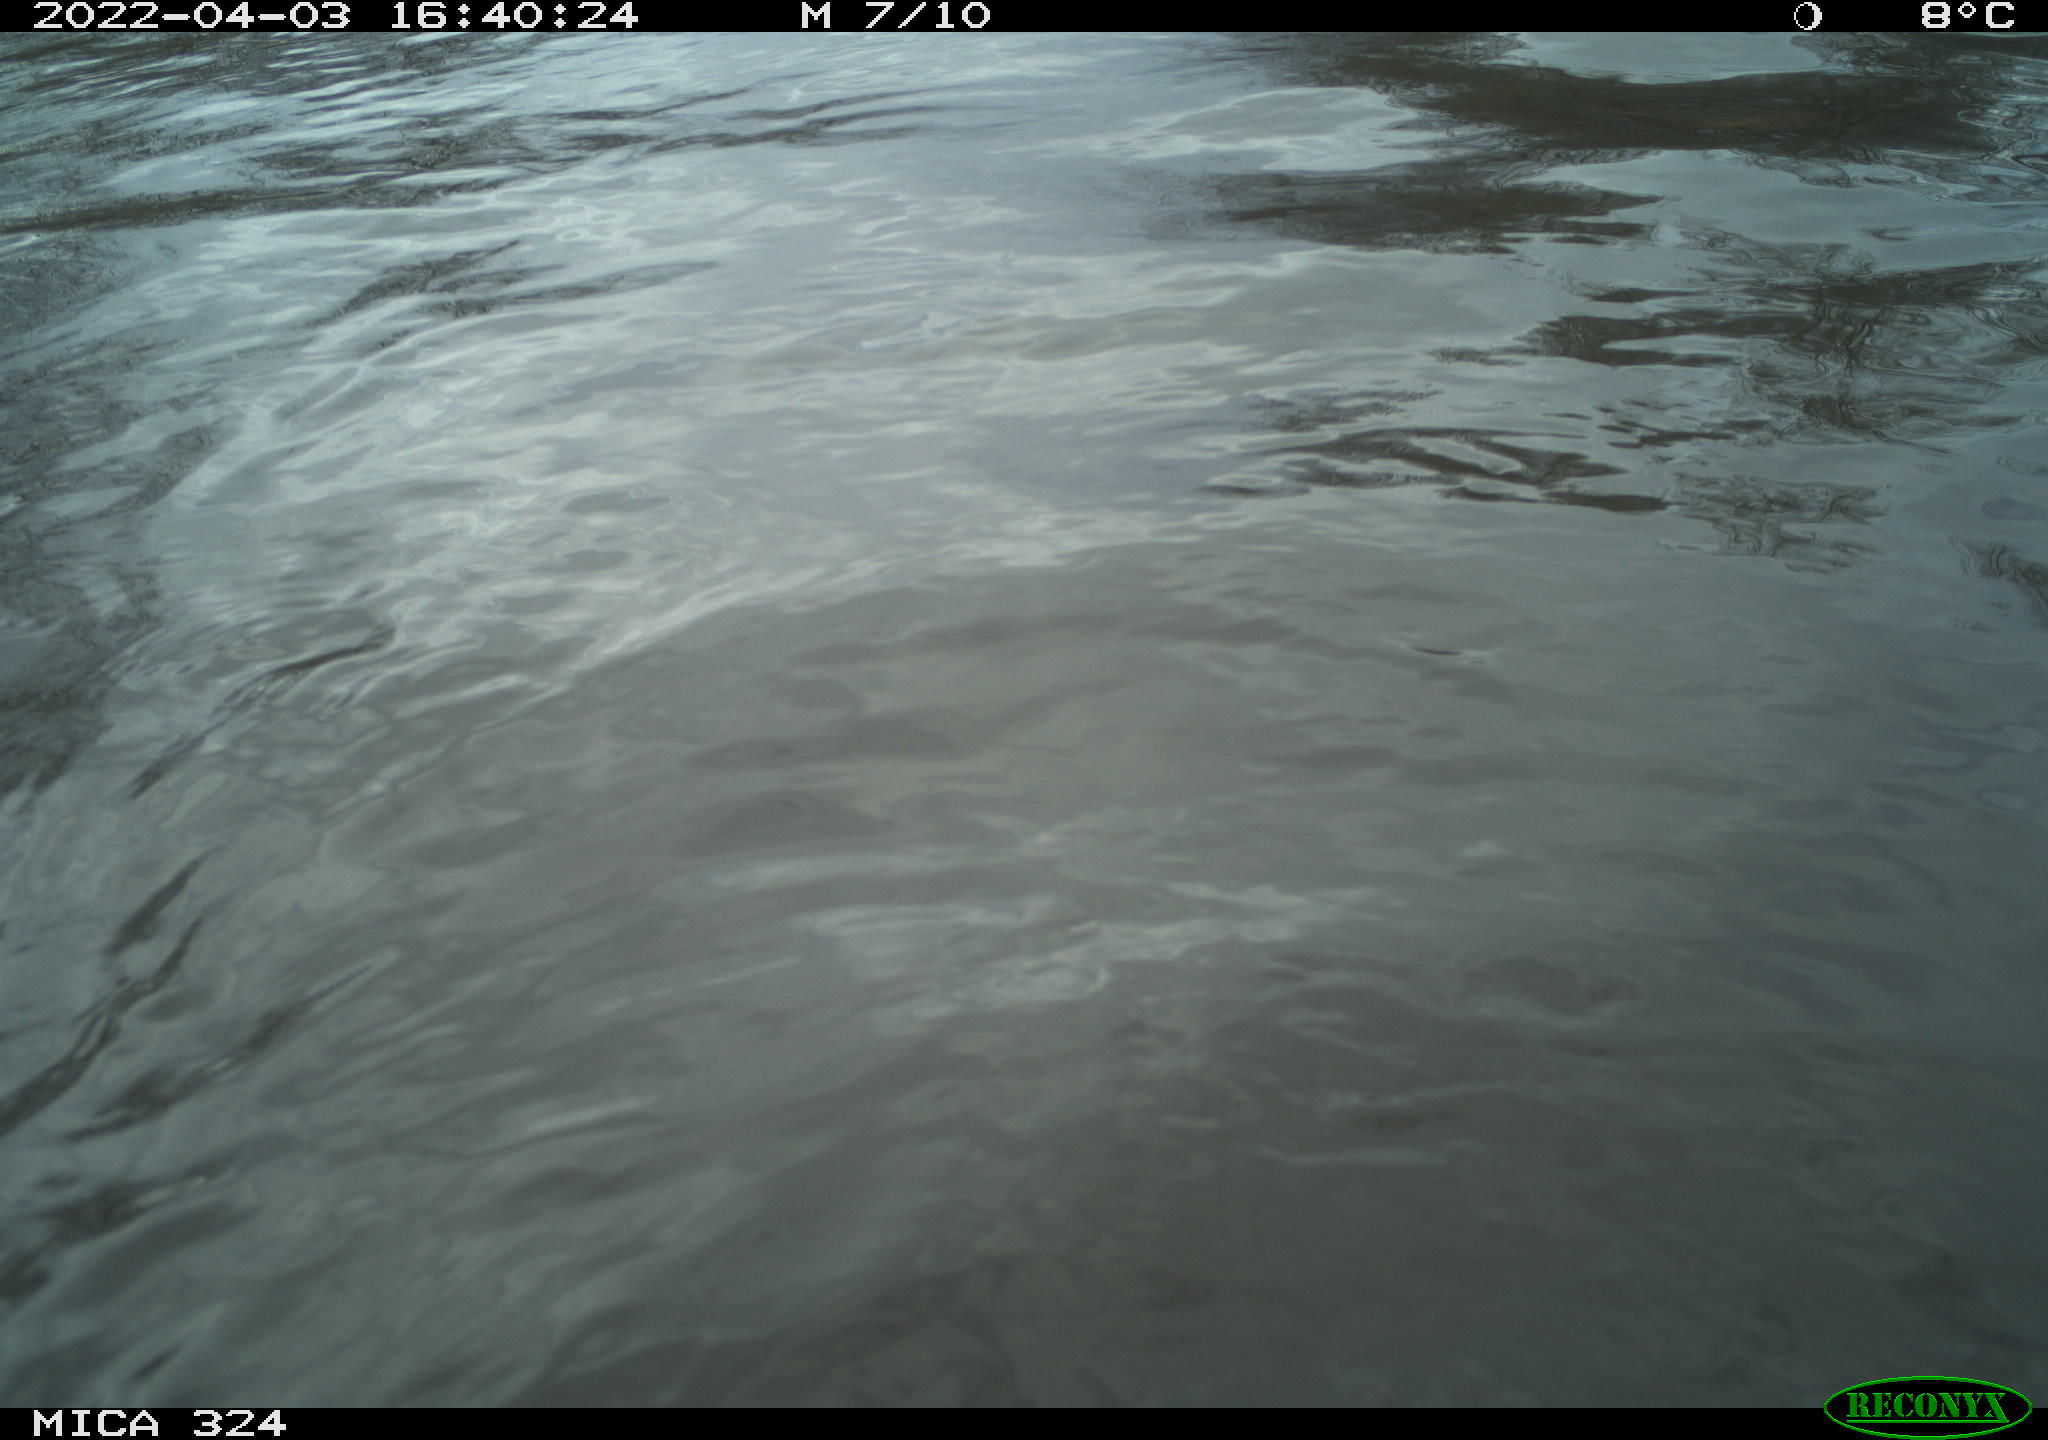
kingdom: Animalia
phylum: Chordata
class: Mammalia
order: Rodentia
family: Cricetidae
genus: Ondatra
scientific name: Ondatra zibethicus
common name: Muskrat
